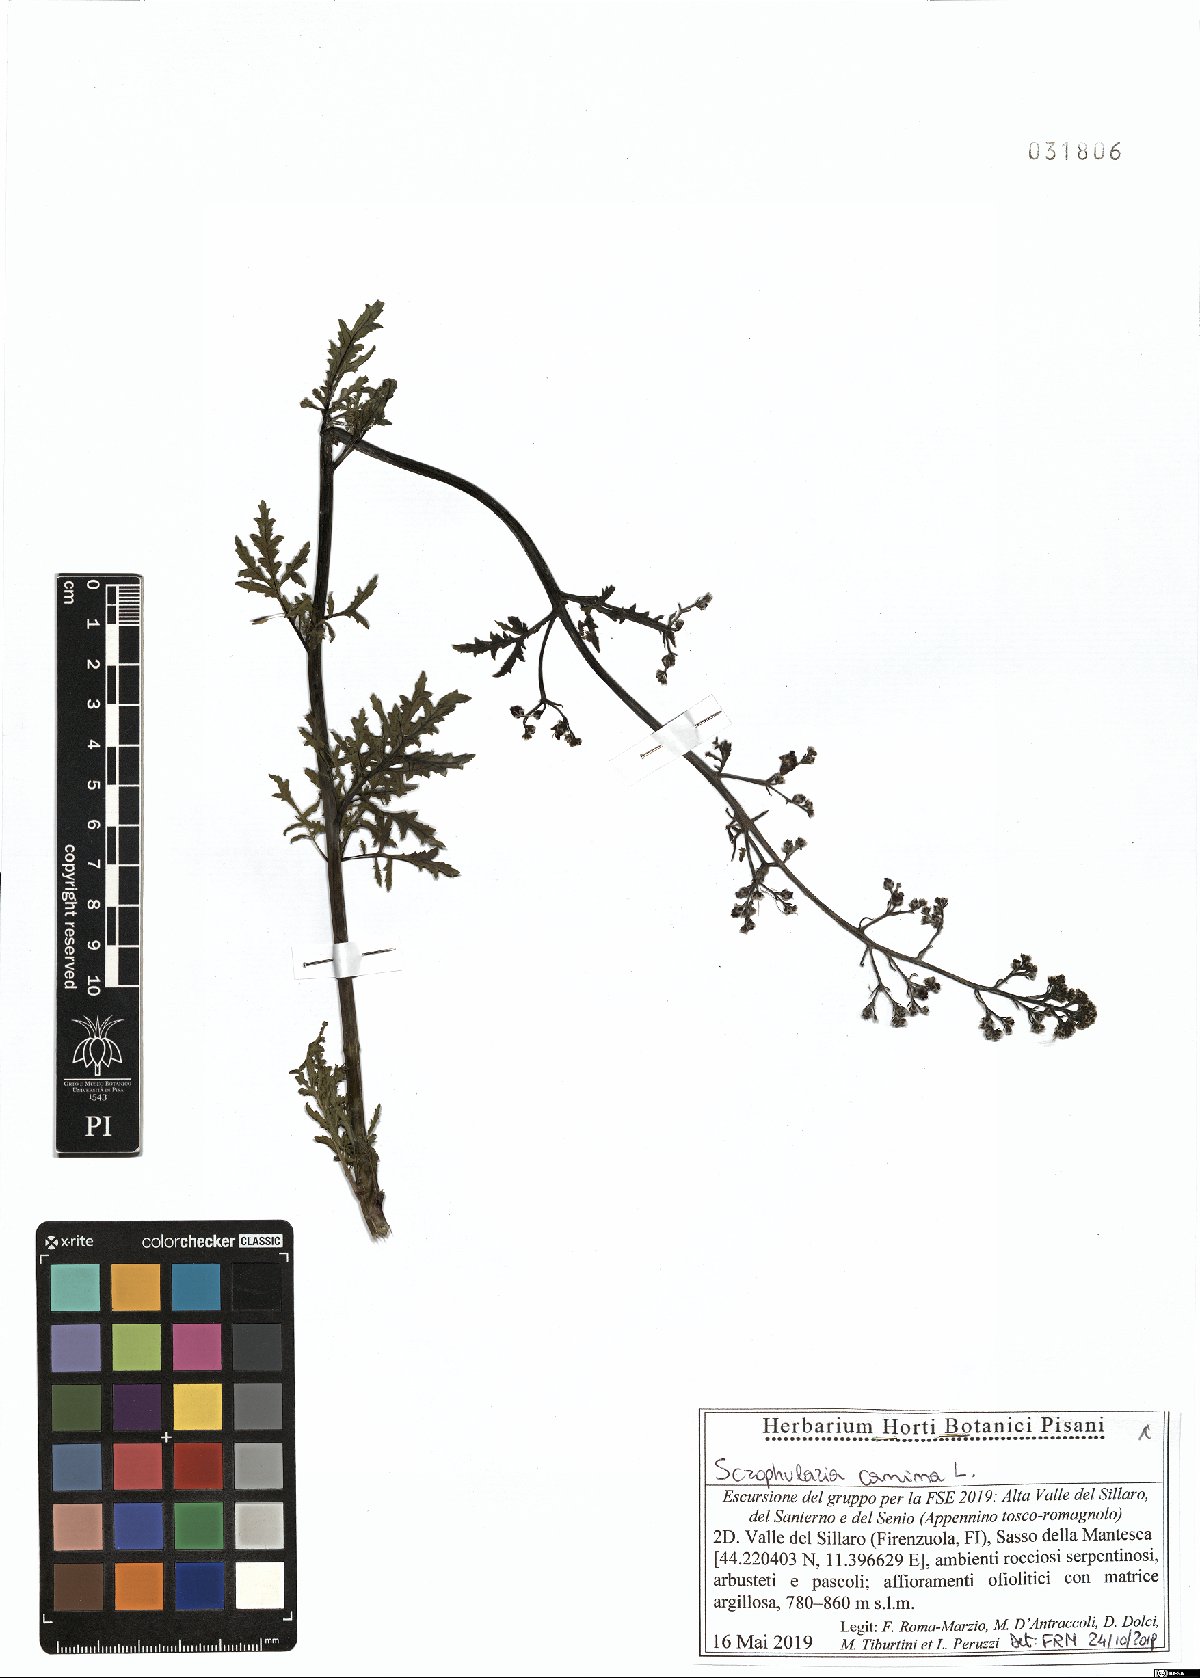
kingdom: Plantae
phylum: Tracheophyta
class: Magnoliopsida
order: Lamiales
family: Scrophulariaceae
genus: Scrophularia
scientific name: Scrophularia canina
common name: French figwort
